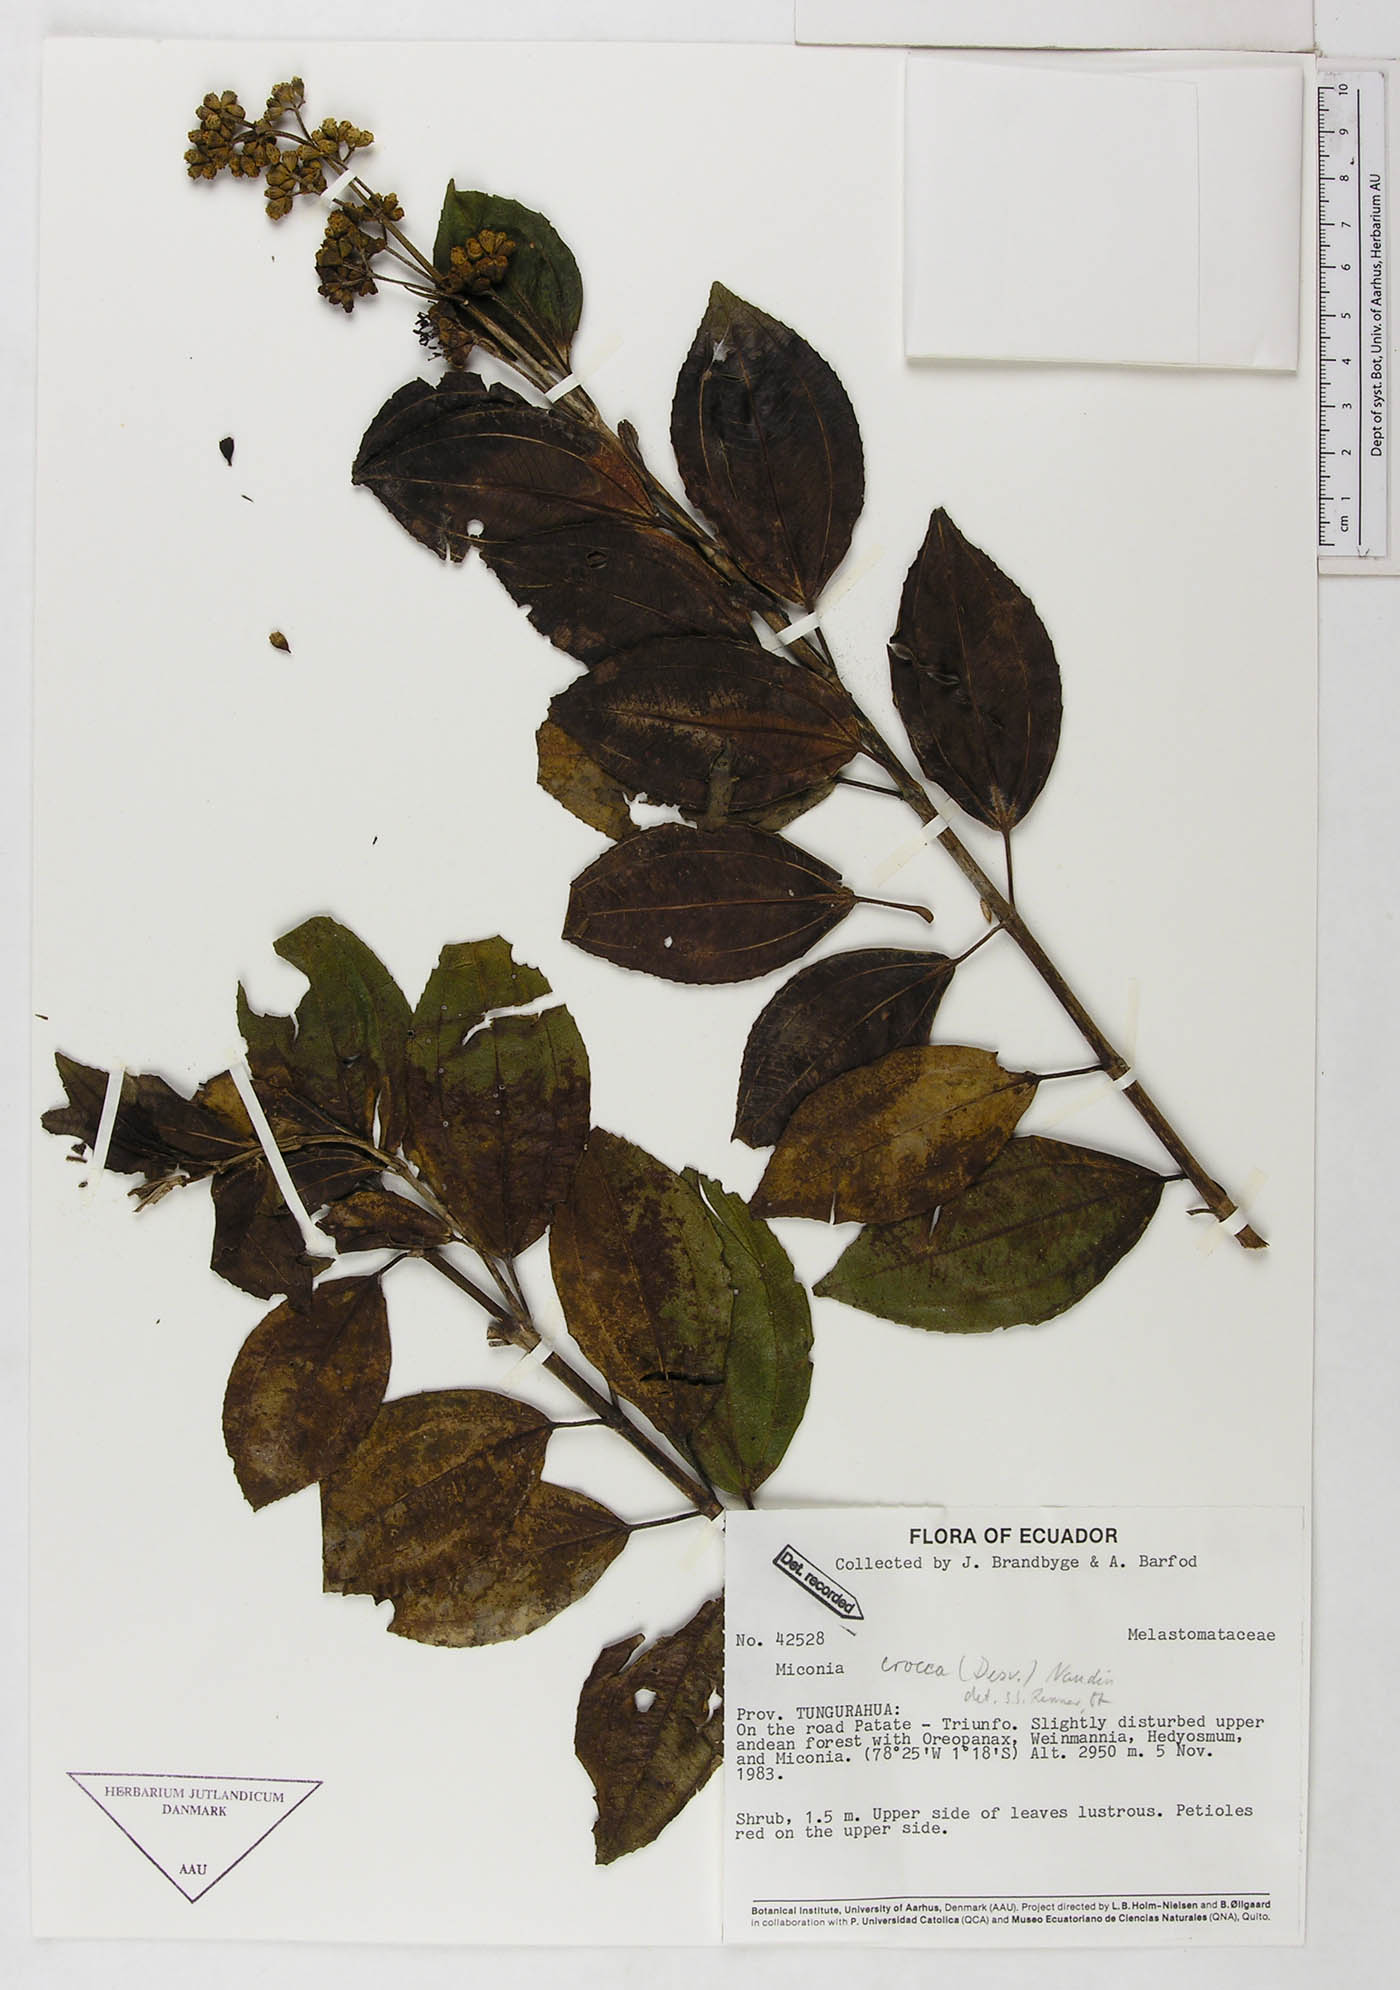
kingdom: Plantae
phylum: Tracheophyta
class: Magnoliopsida
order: Myrtales
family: Melastomataceae
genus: Miconia
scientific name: Miconia crocea
